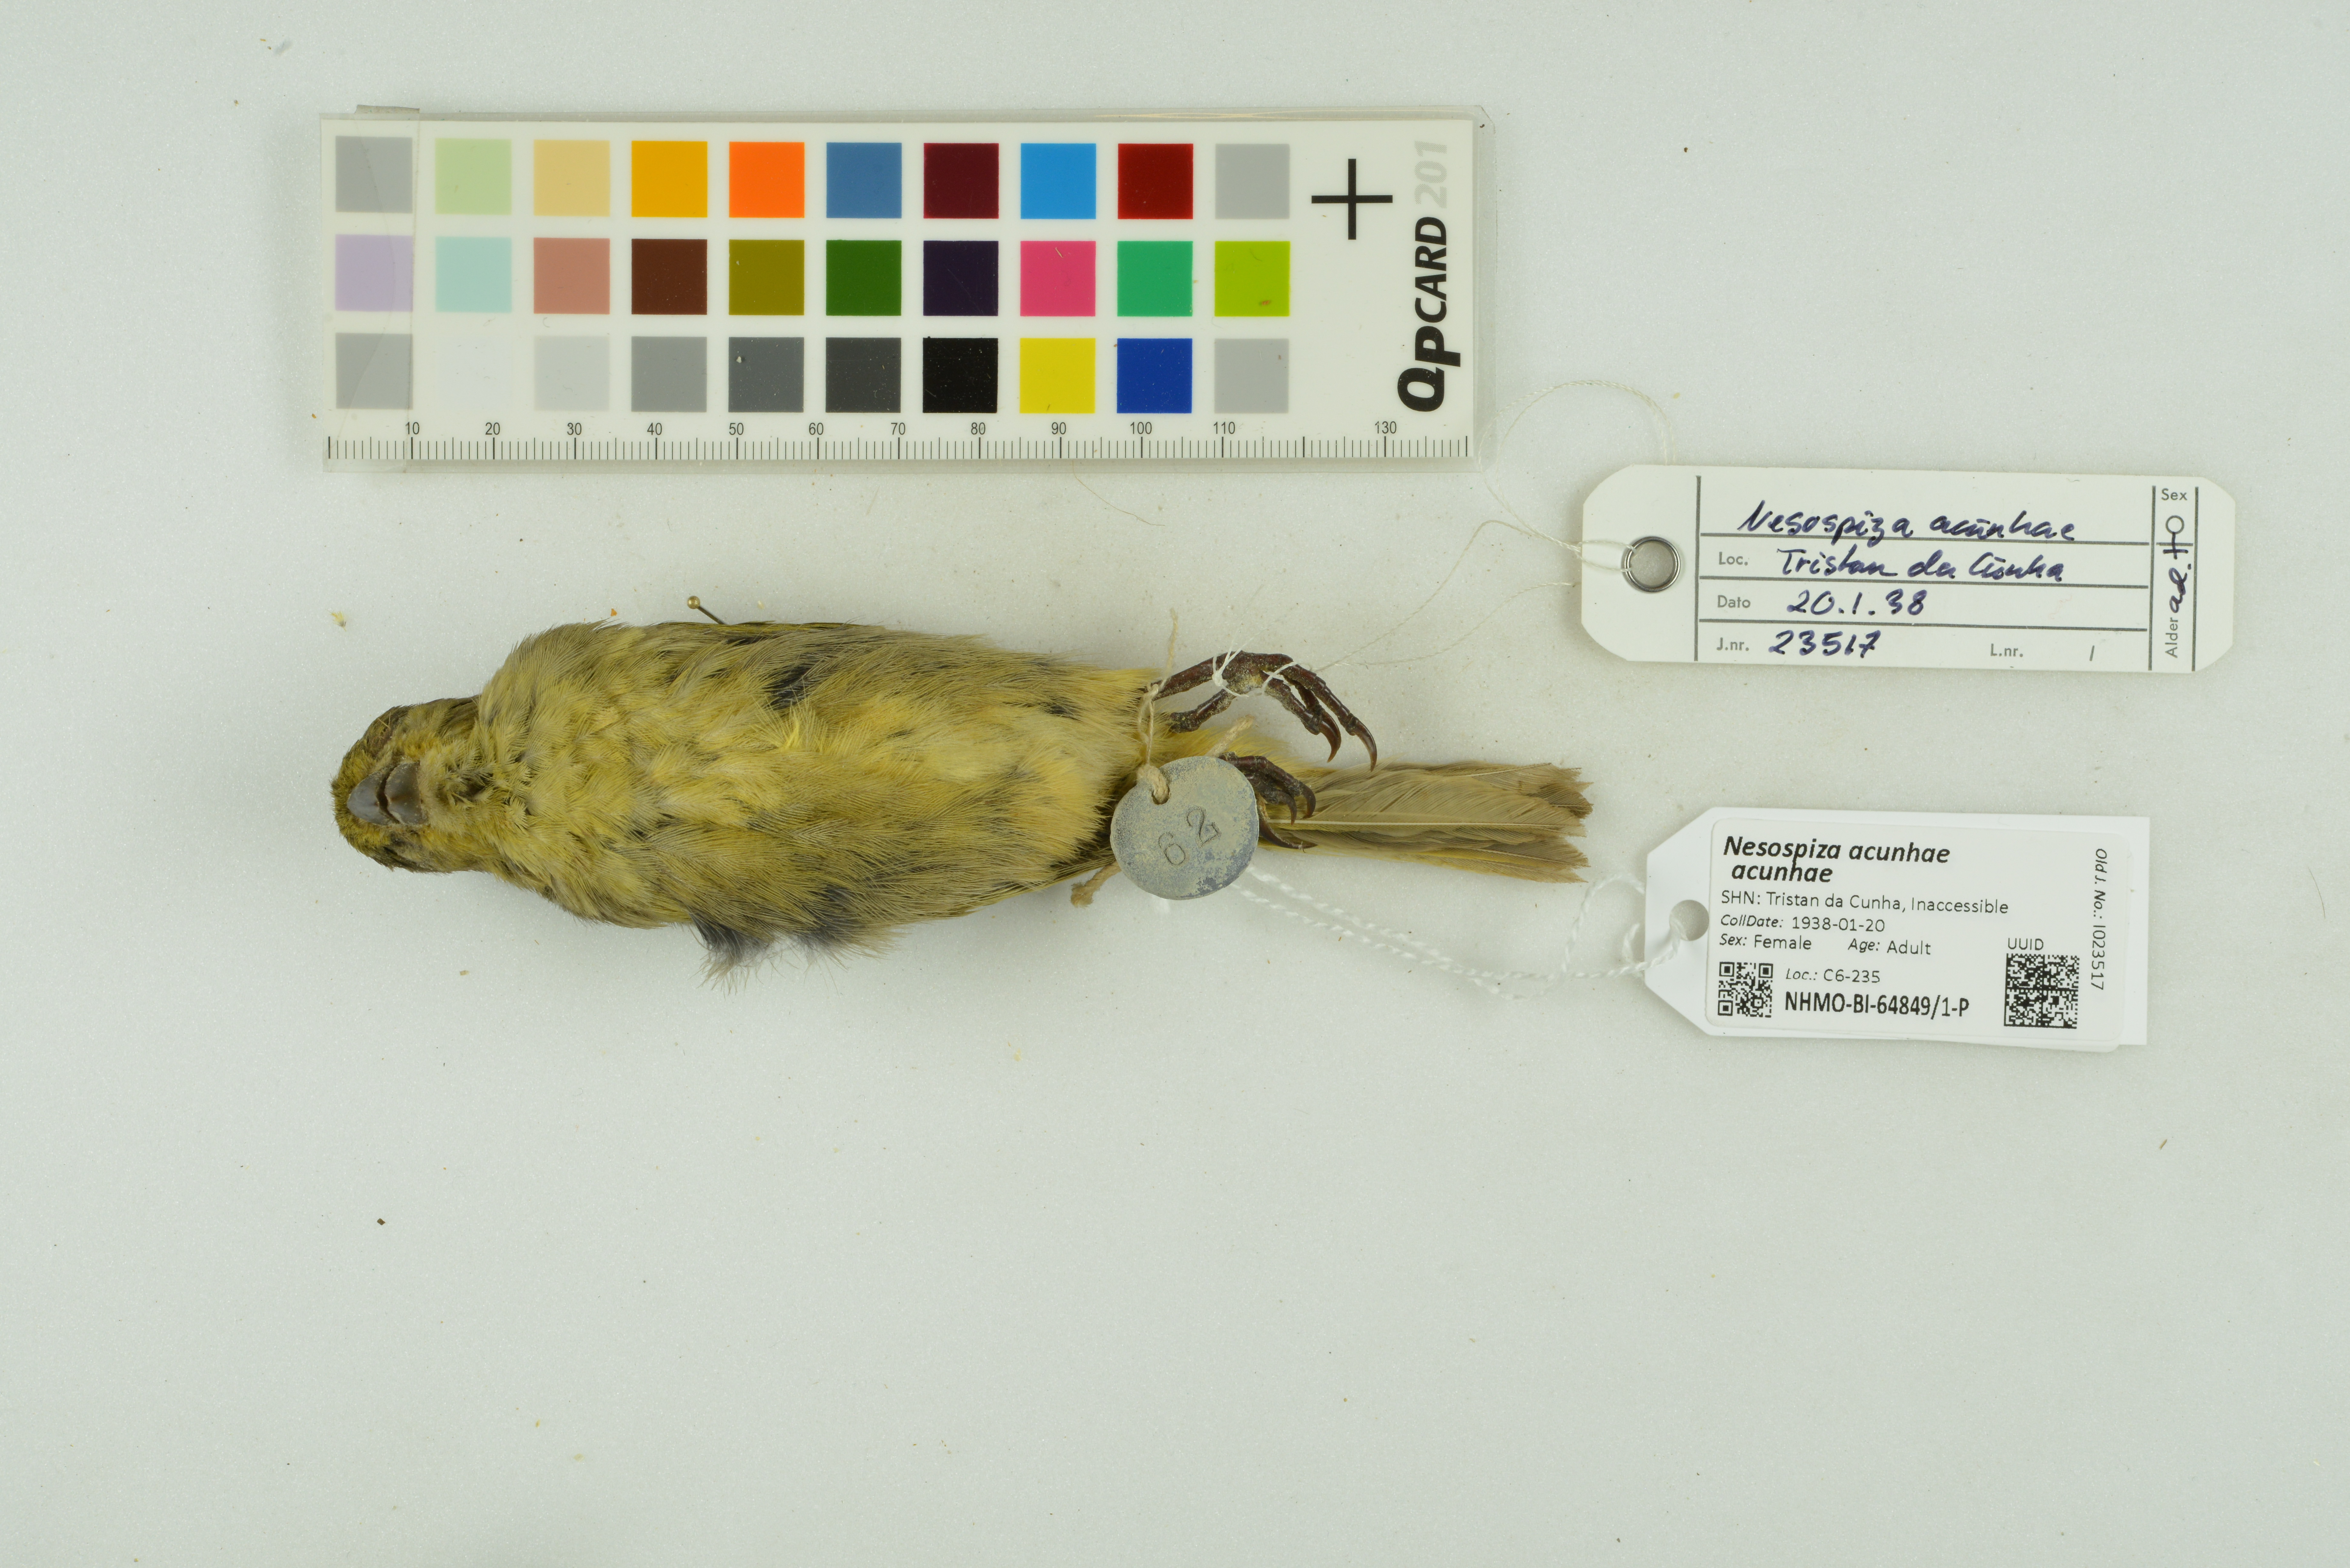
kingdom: Animalia
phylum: Chordata
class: Aves
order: Passeriformes
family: Thraupidae
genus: Nesospiza
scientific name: Nesospiza acunhae
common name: Inaccessible island finch
